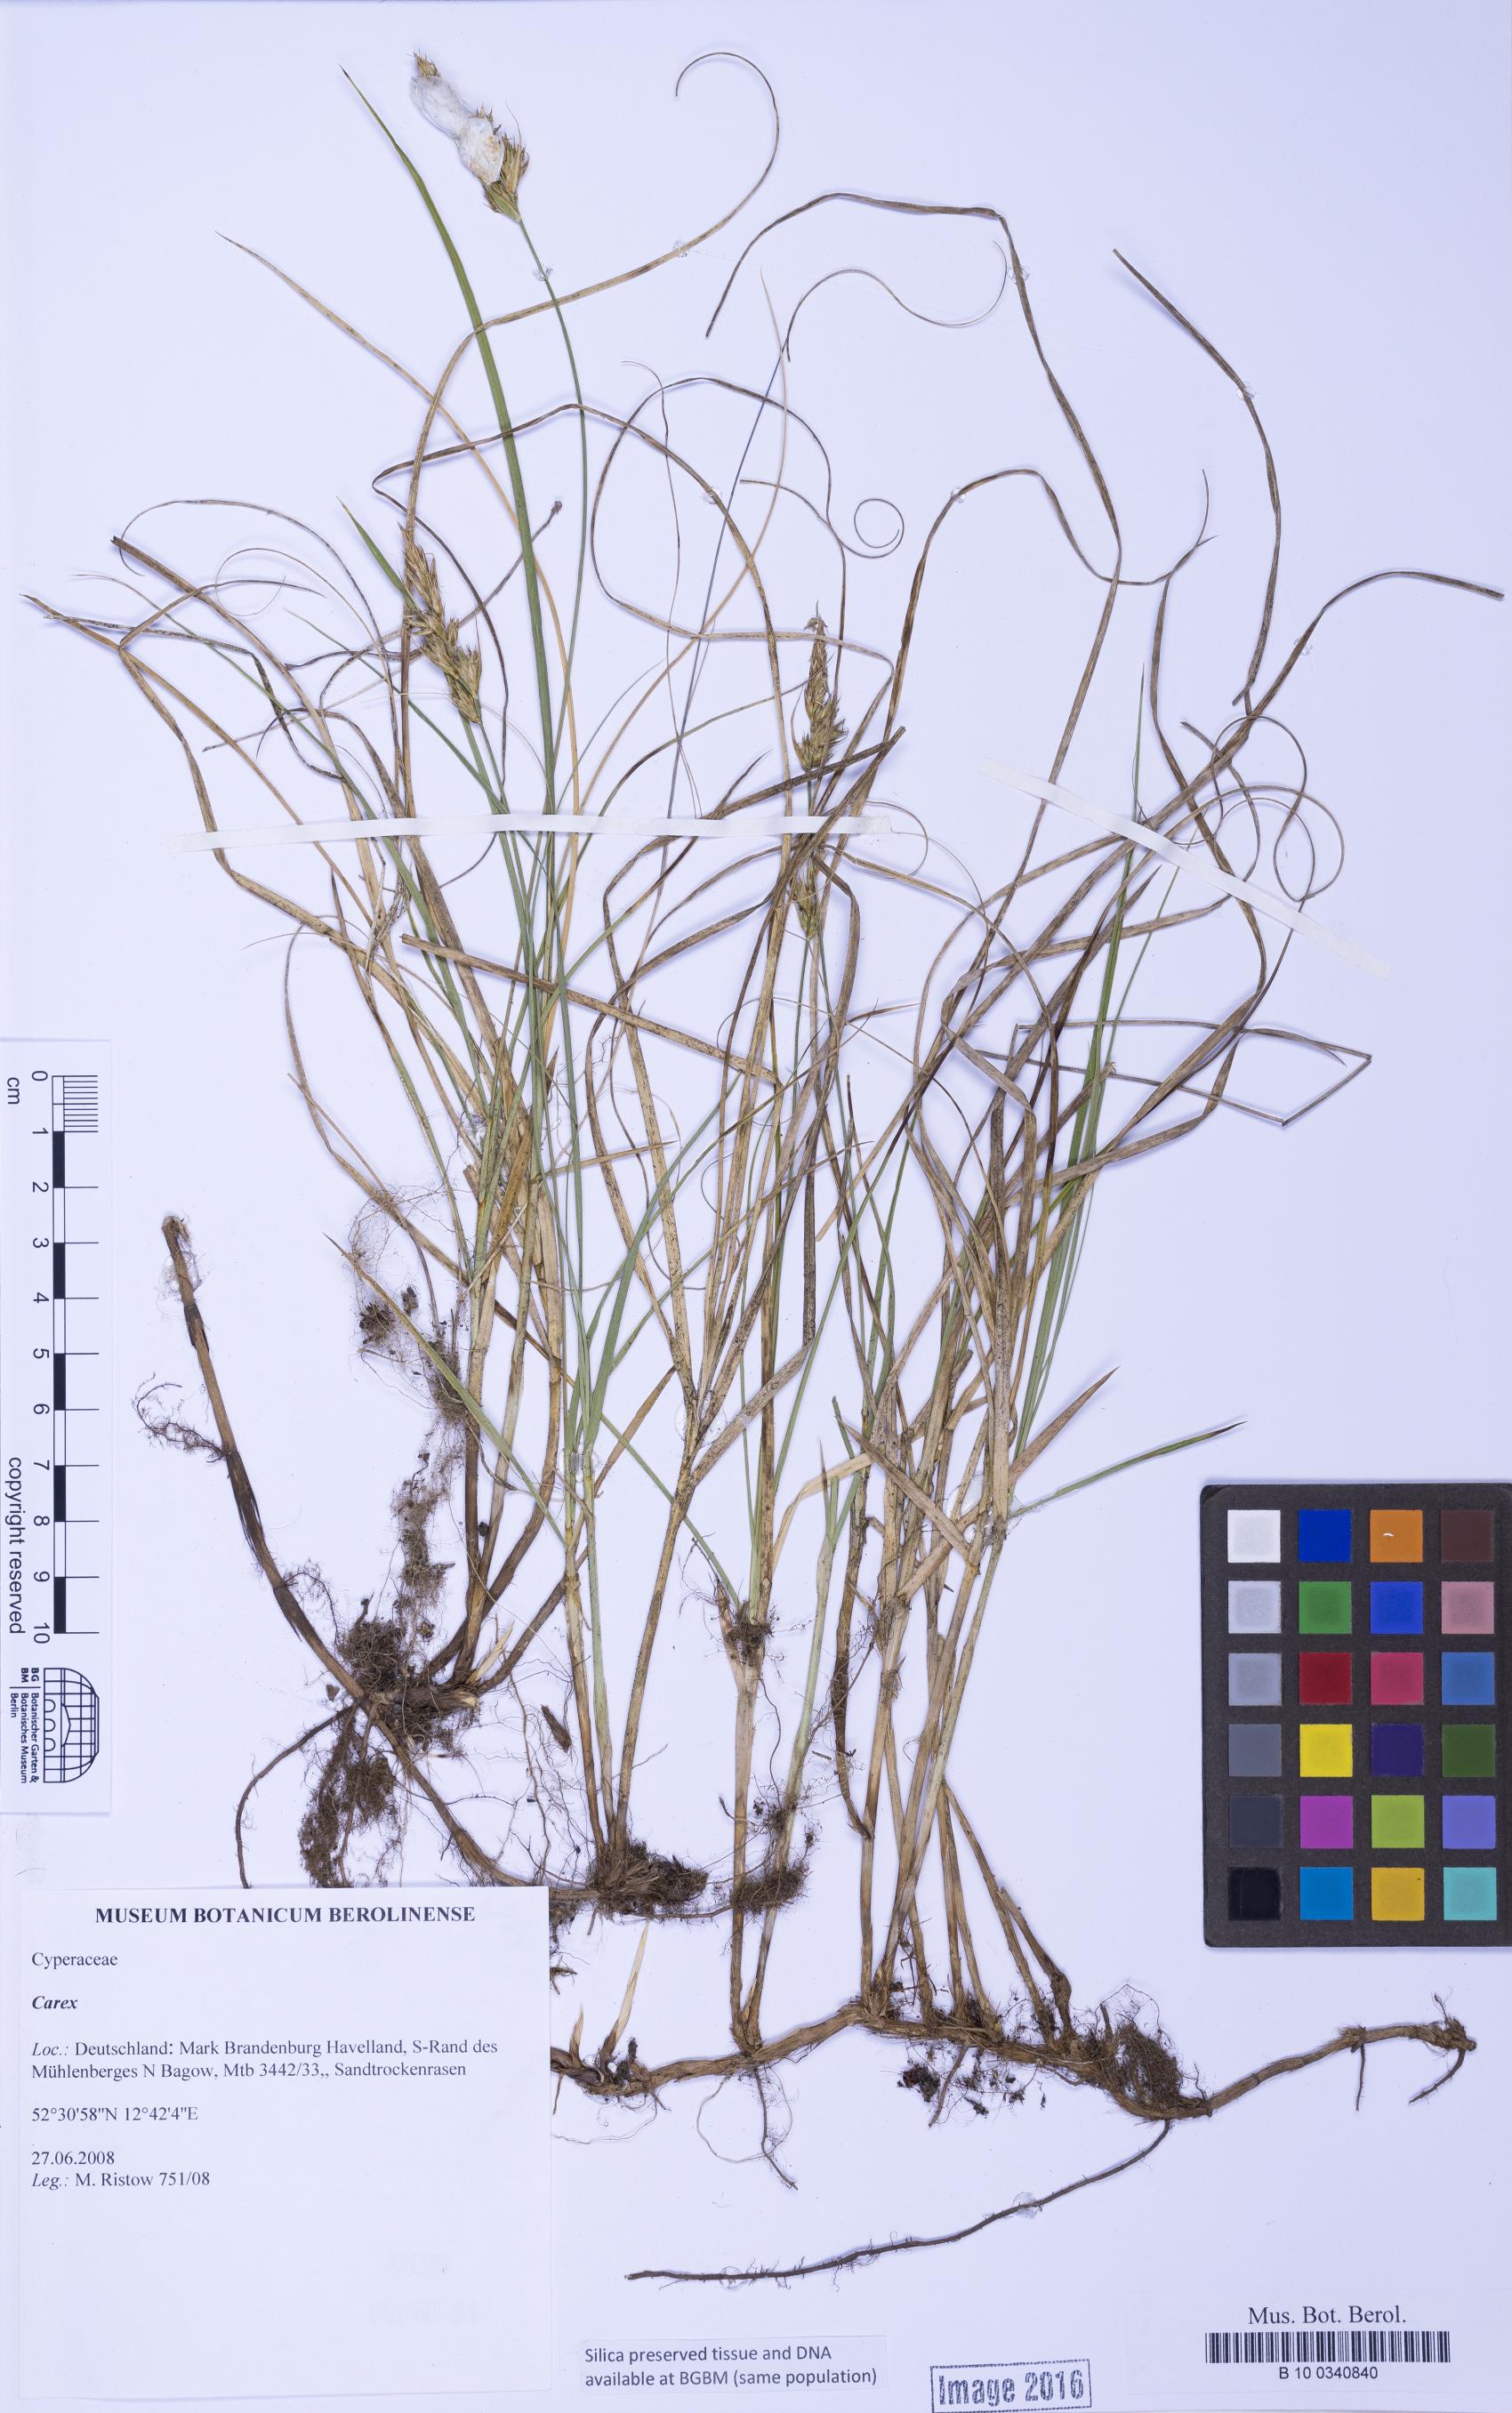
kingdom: Plantae
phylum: Tracheophyta
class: Liliopsida
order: Poales
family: Cyperaceae
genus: Carex
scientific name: Carex
